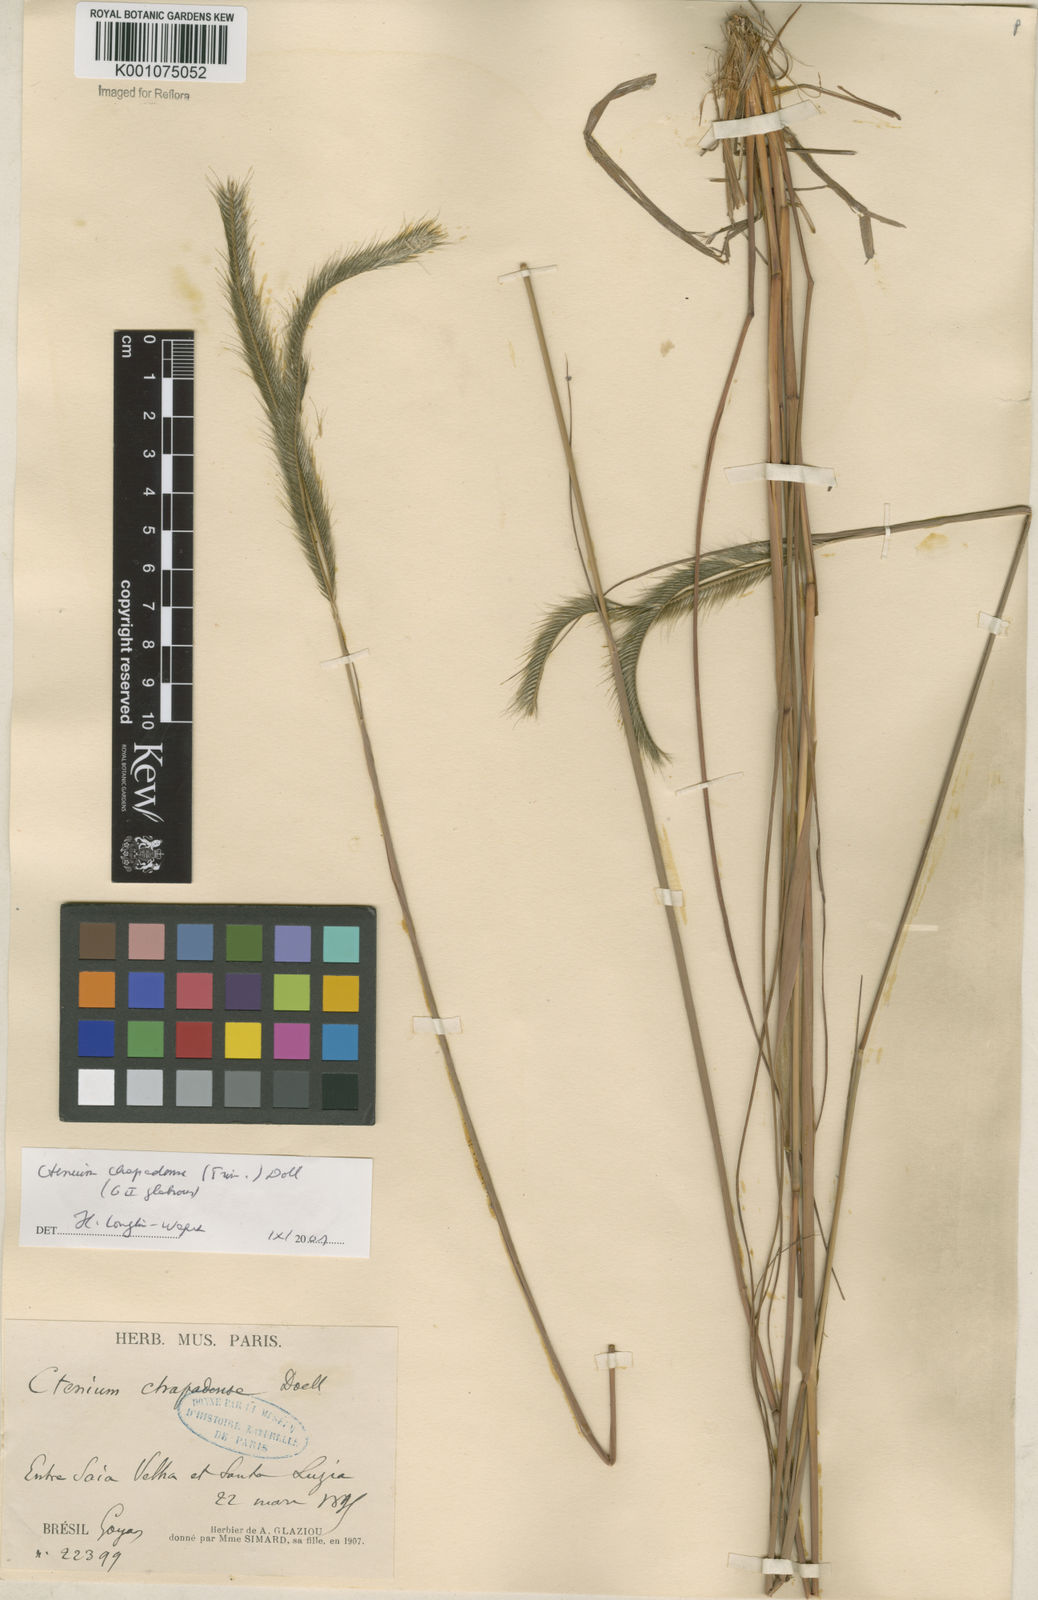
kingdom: Plantae
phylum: Tracheophyta
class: Liliopsida
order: Poales
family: Poaceae
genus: Ctenium
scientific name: Ctenium
